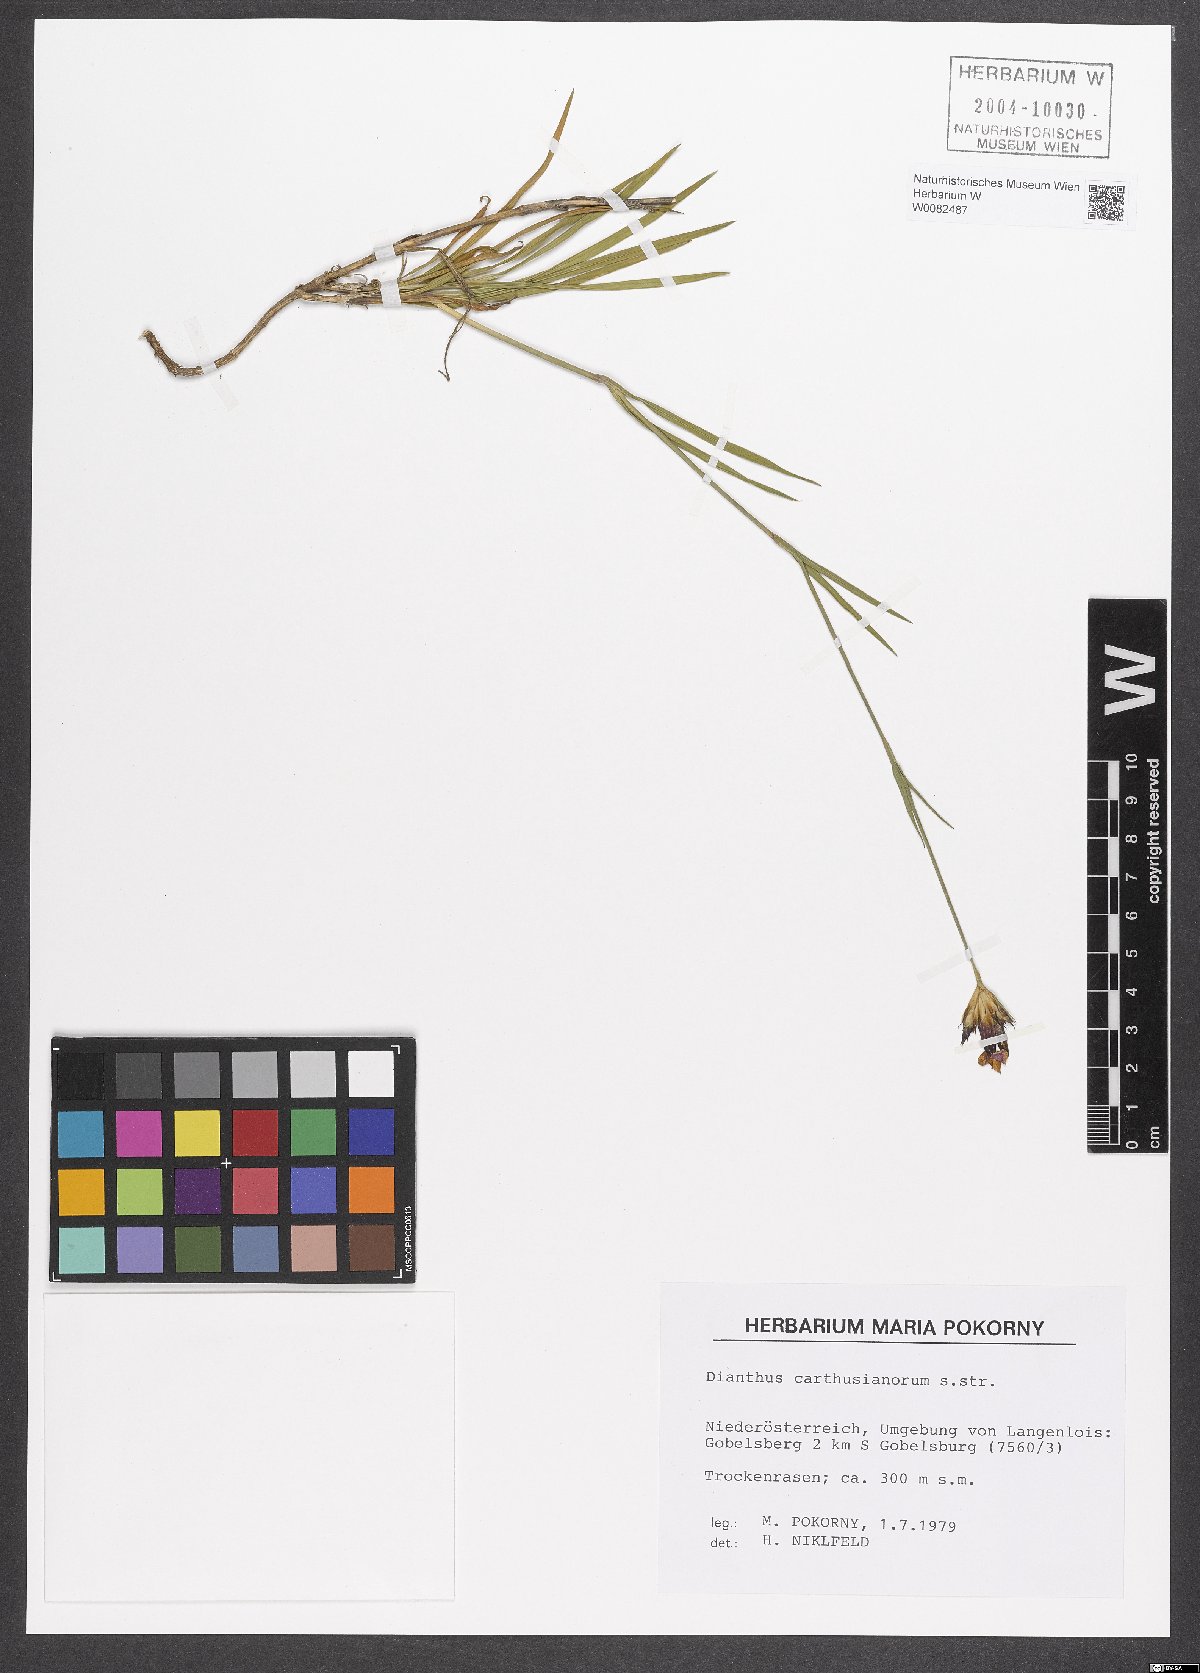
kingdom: Plantae
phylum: Tracheophyta
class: Magnoliopsida
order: Caryophyllales
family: Caryophyllaceae
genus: Dianthus
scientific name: Dianthus carthusianorum
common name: Carthusian pink
